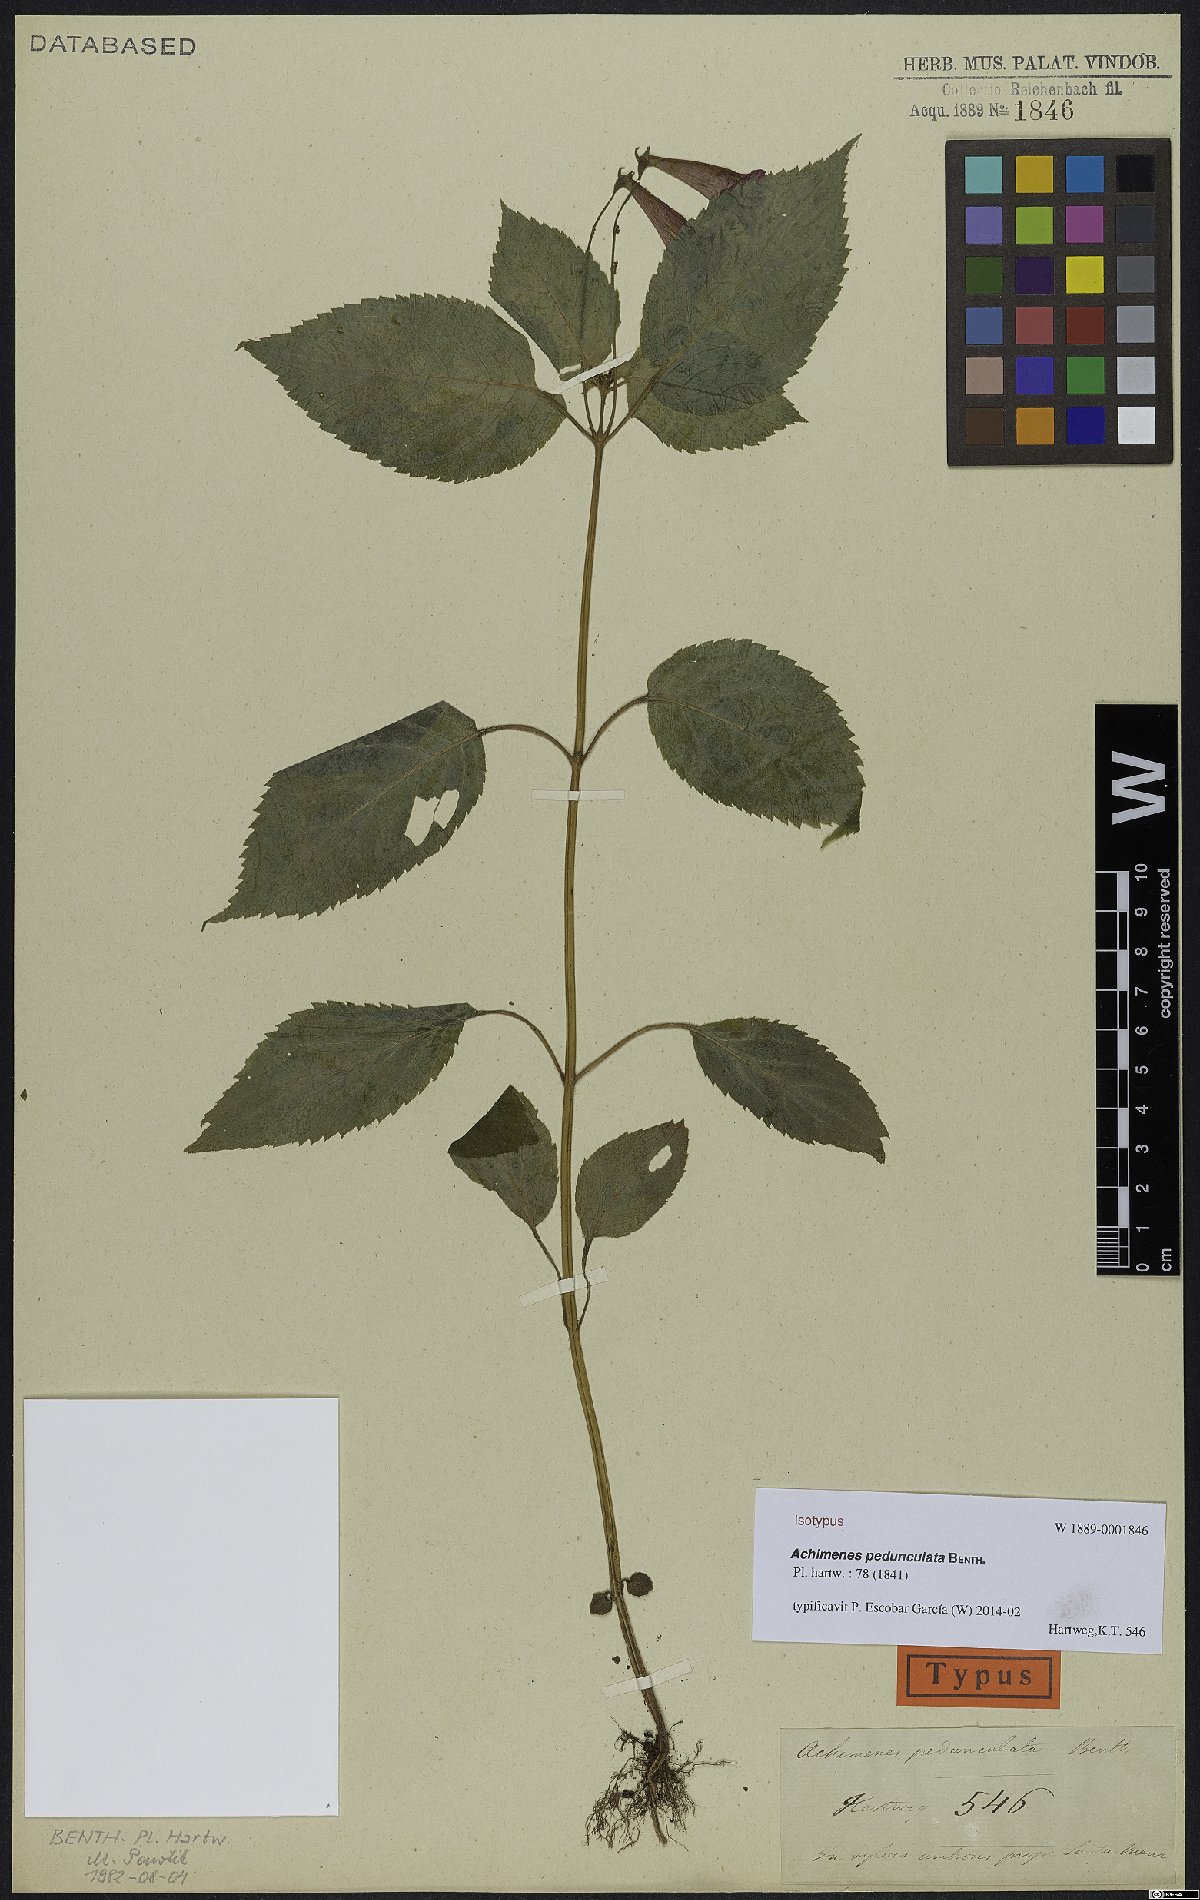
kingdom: Plantae
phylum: Tracheophyta
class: Magnoliopsida
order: Lamiales
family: Gesneriaceae
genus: Achimenes
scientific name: Achimenes pedunculata
